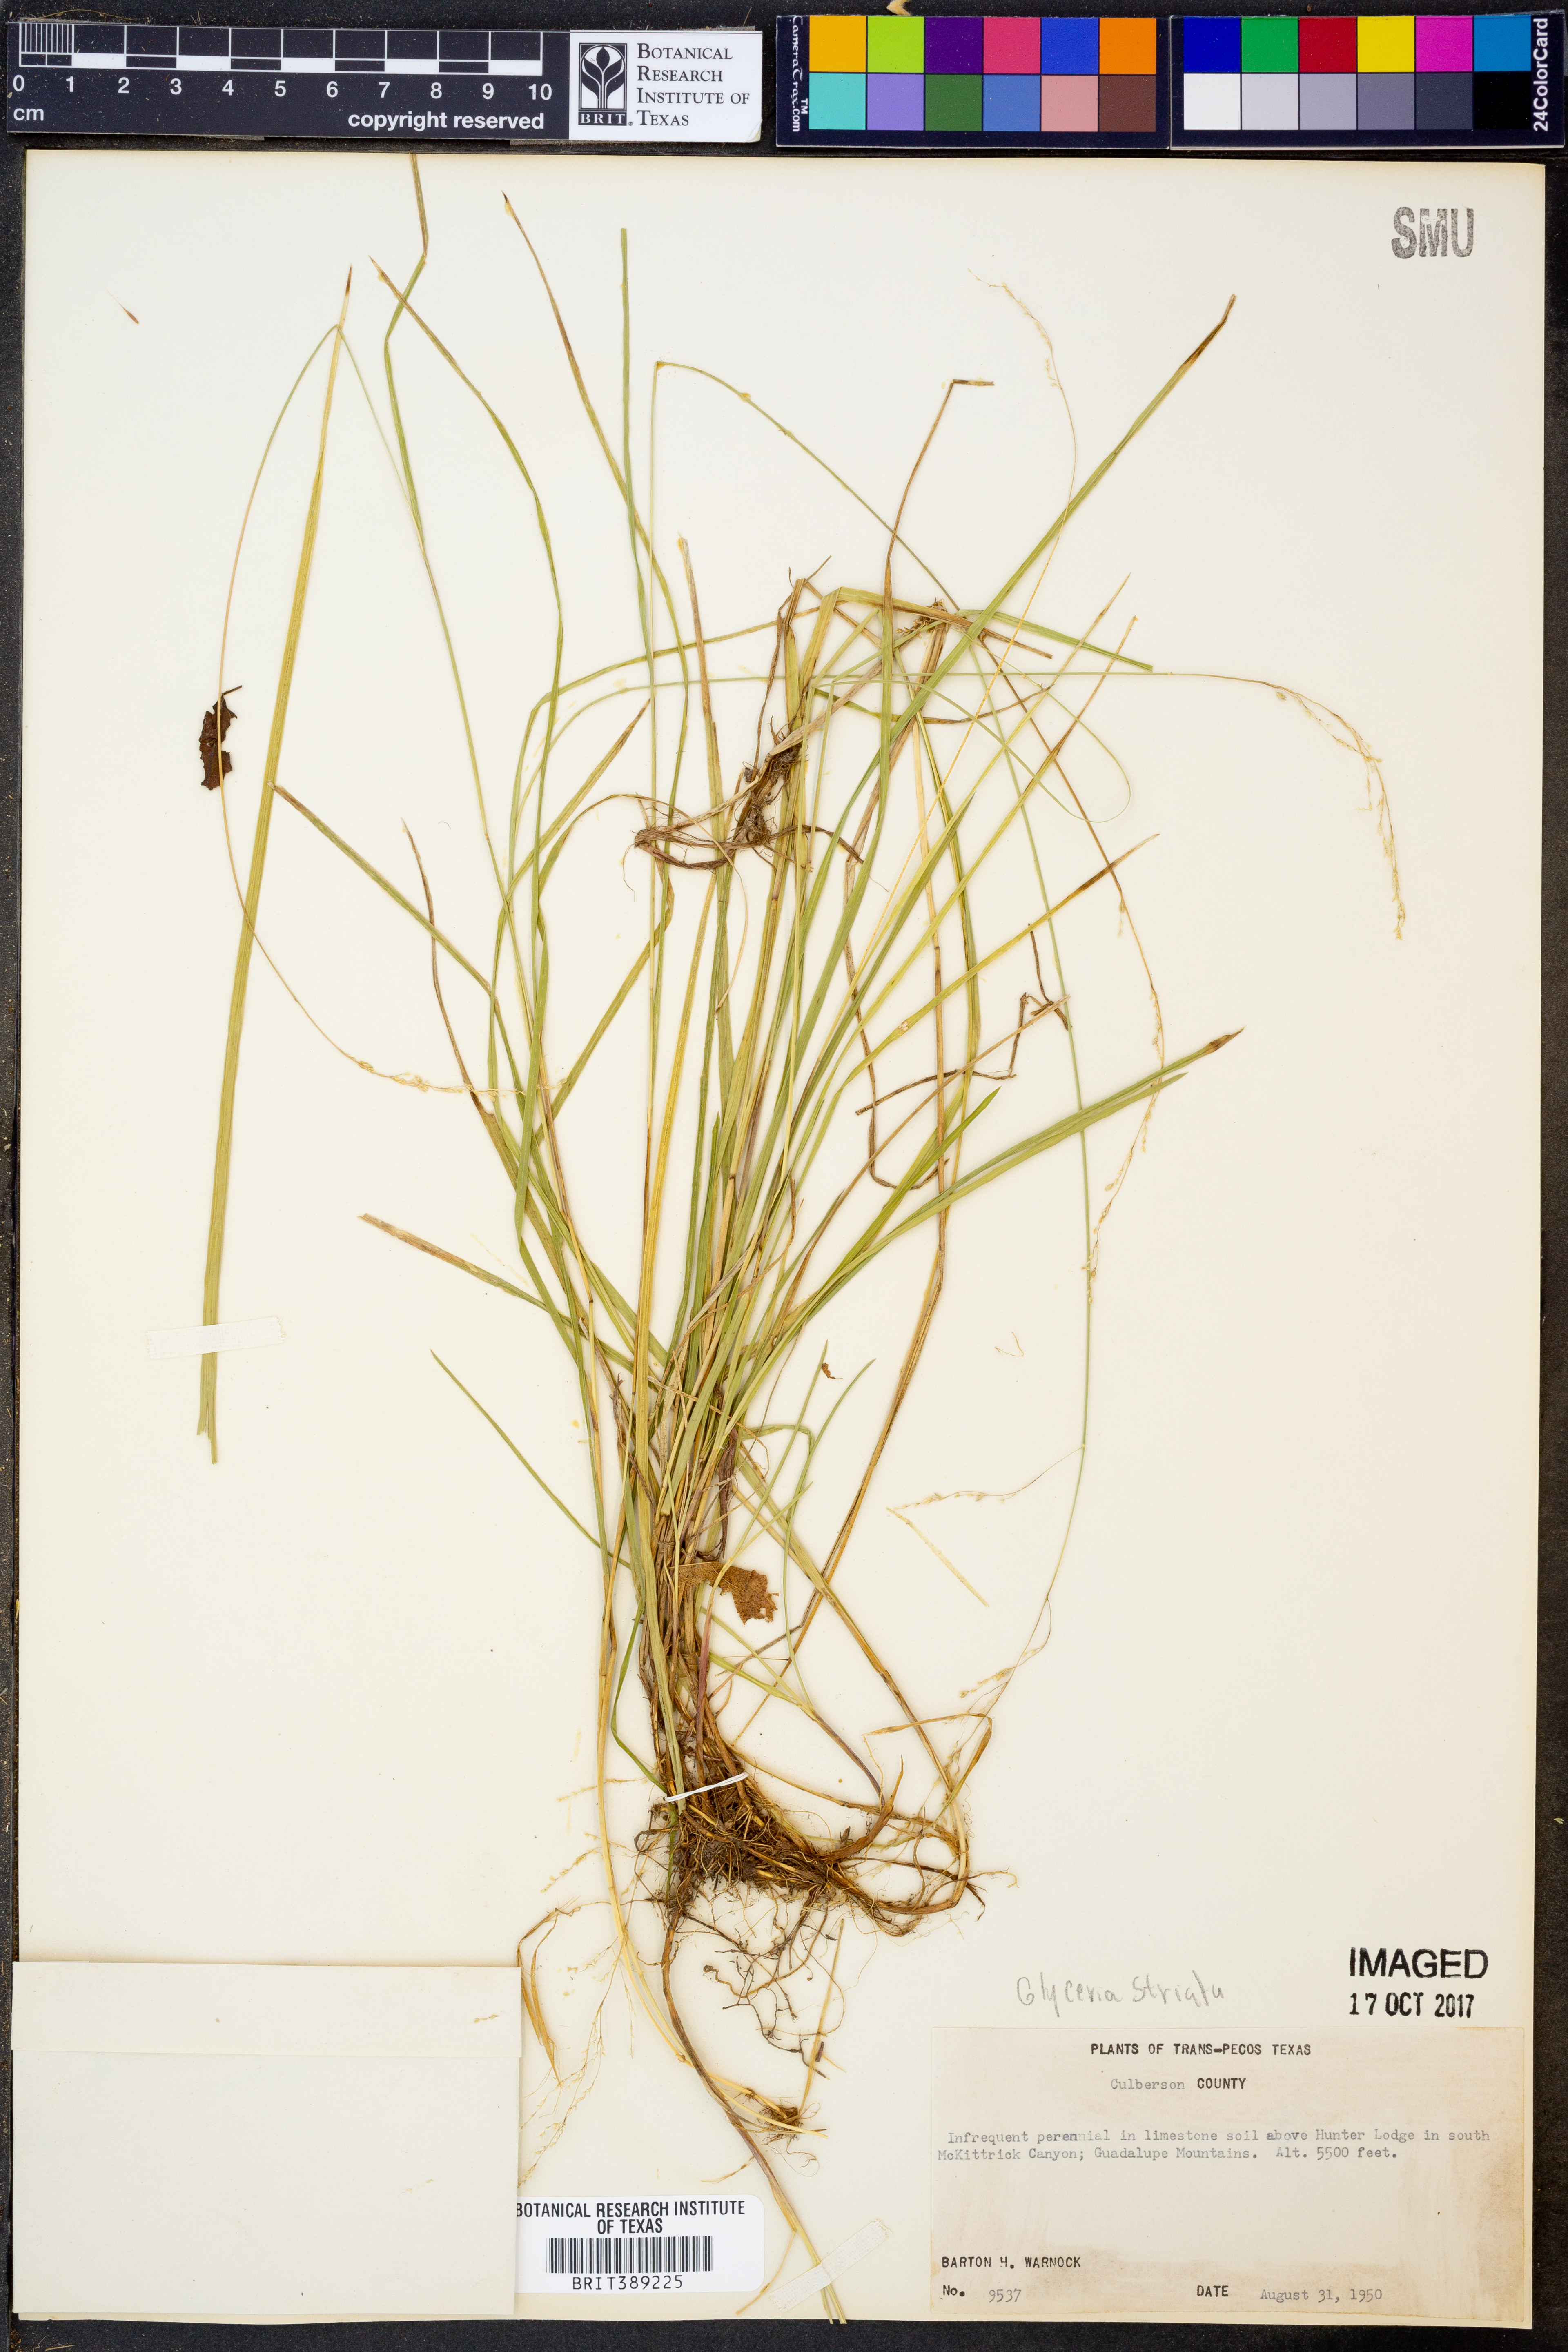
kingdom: Plantae
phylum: Tracheophyta
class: Liliopsida
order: Poales
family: Poaceae
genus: Glyceria
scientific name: Glyceria striata
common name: Fowl manna grass
